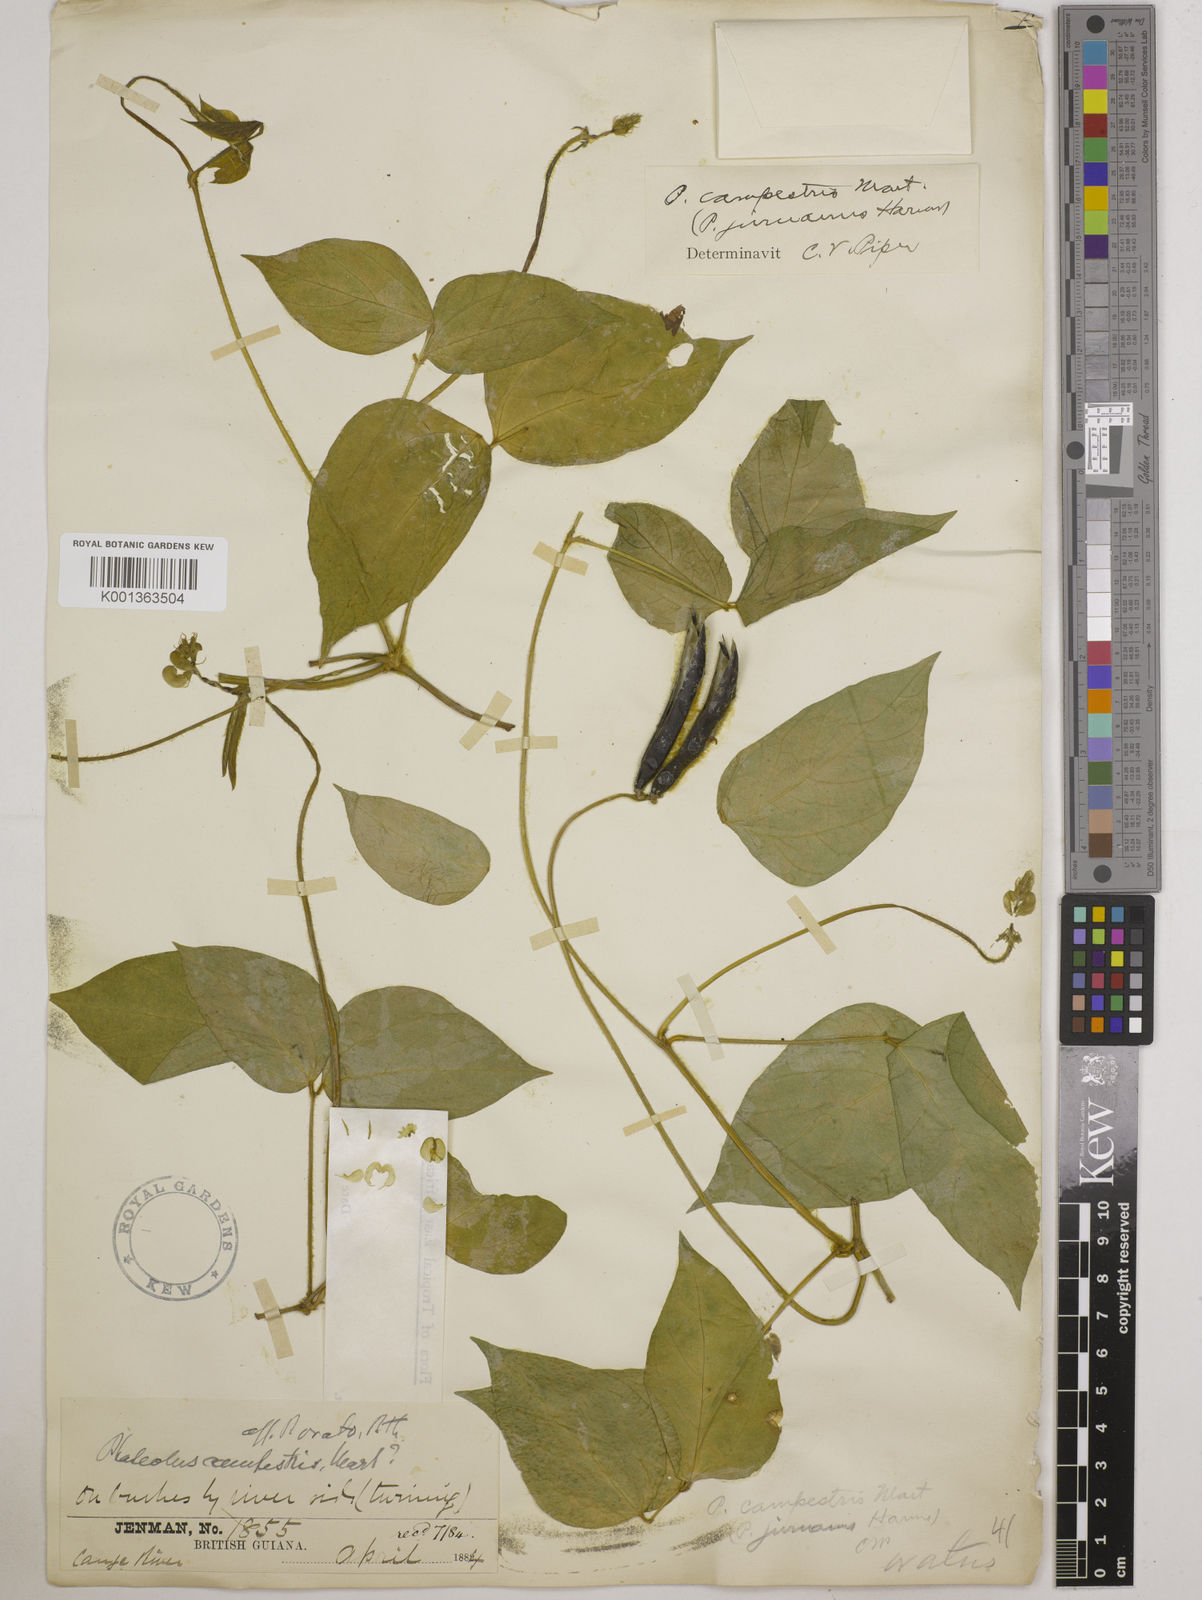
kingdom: Plantae
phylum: Tracheophyta
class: Magnoliopsida
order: Fabales
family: Fabaceae
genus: Vigna
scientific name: Vigna juruana
